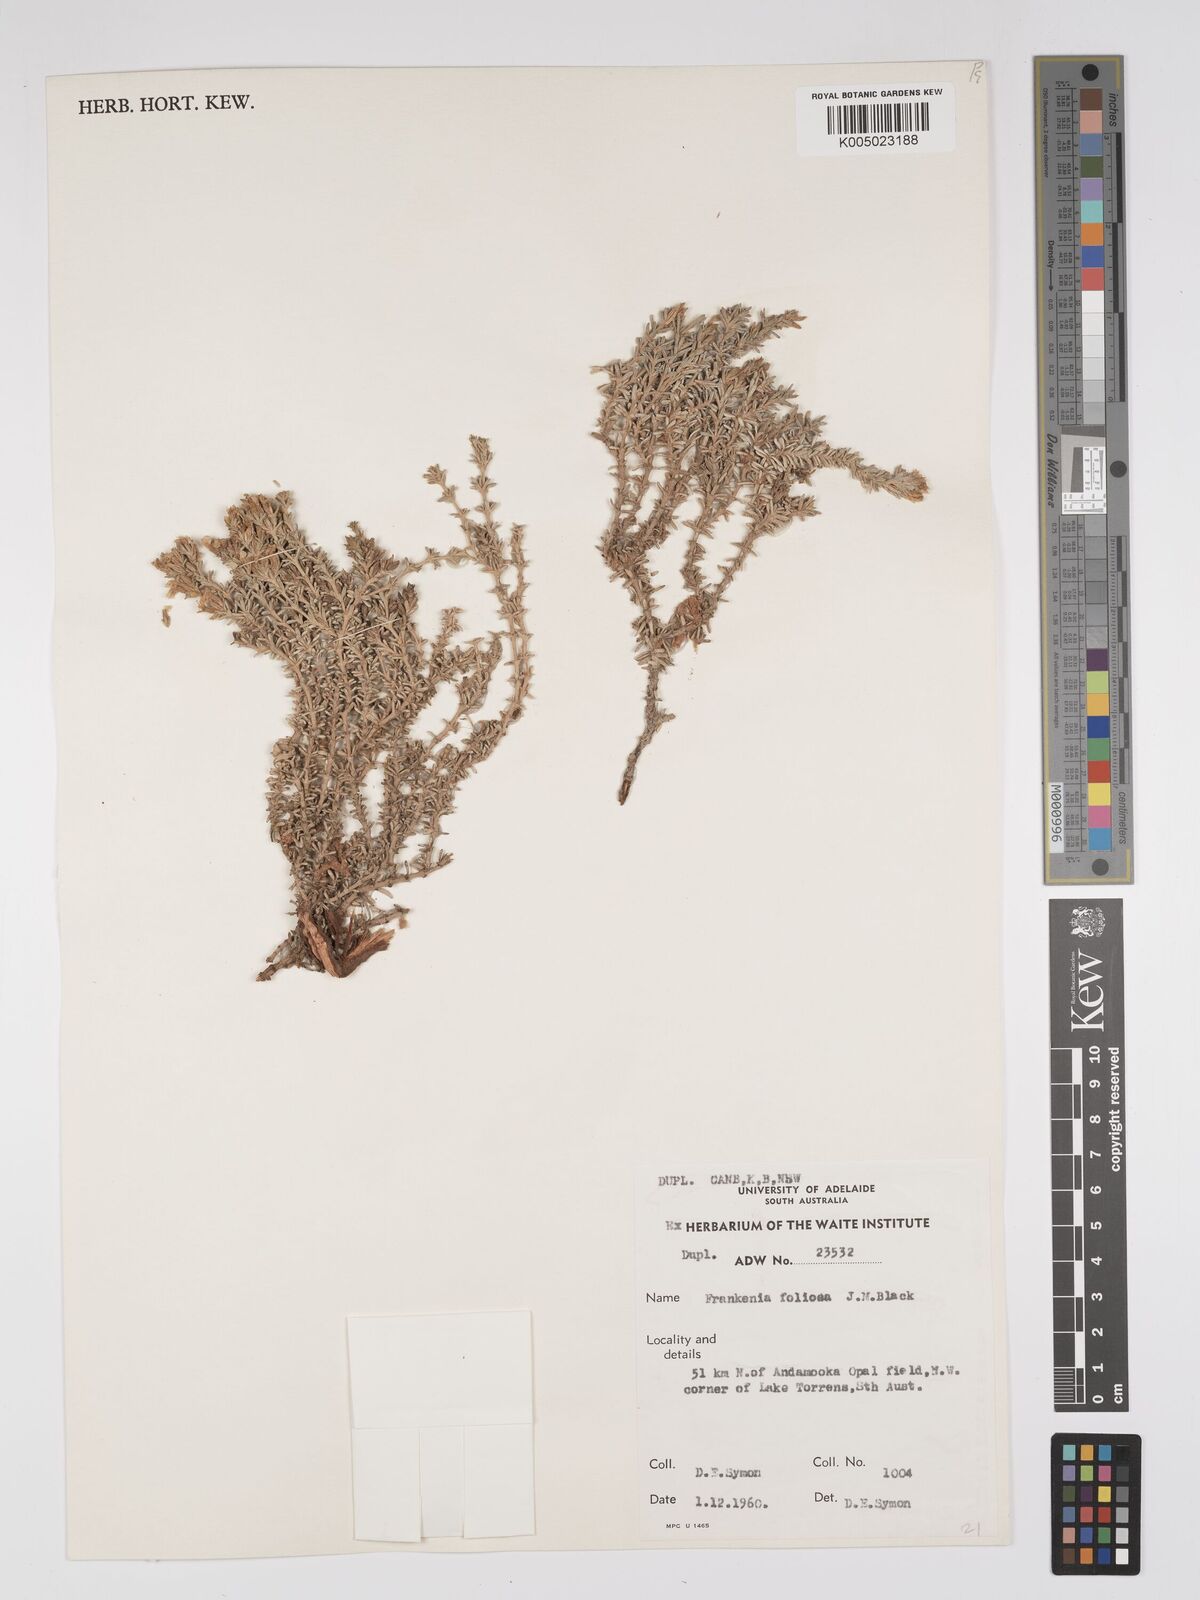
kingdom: Plantae
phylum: Tracheophyta
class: Magnoliopsida
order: Caryophyllales
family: Frankeniaceae
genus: Frankenia
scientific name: Frankenia foliosa
